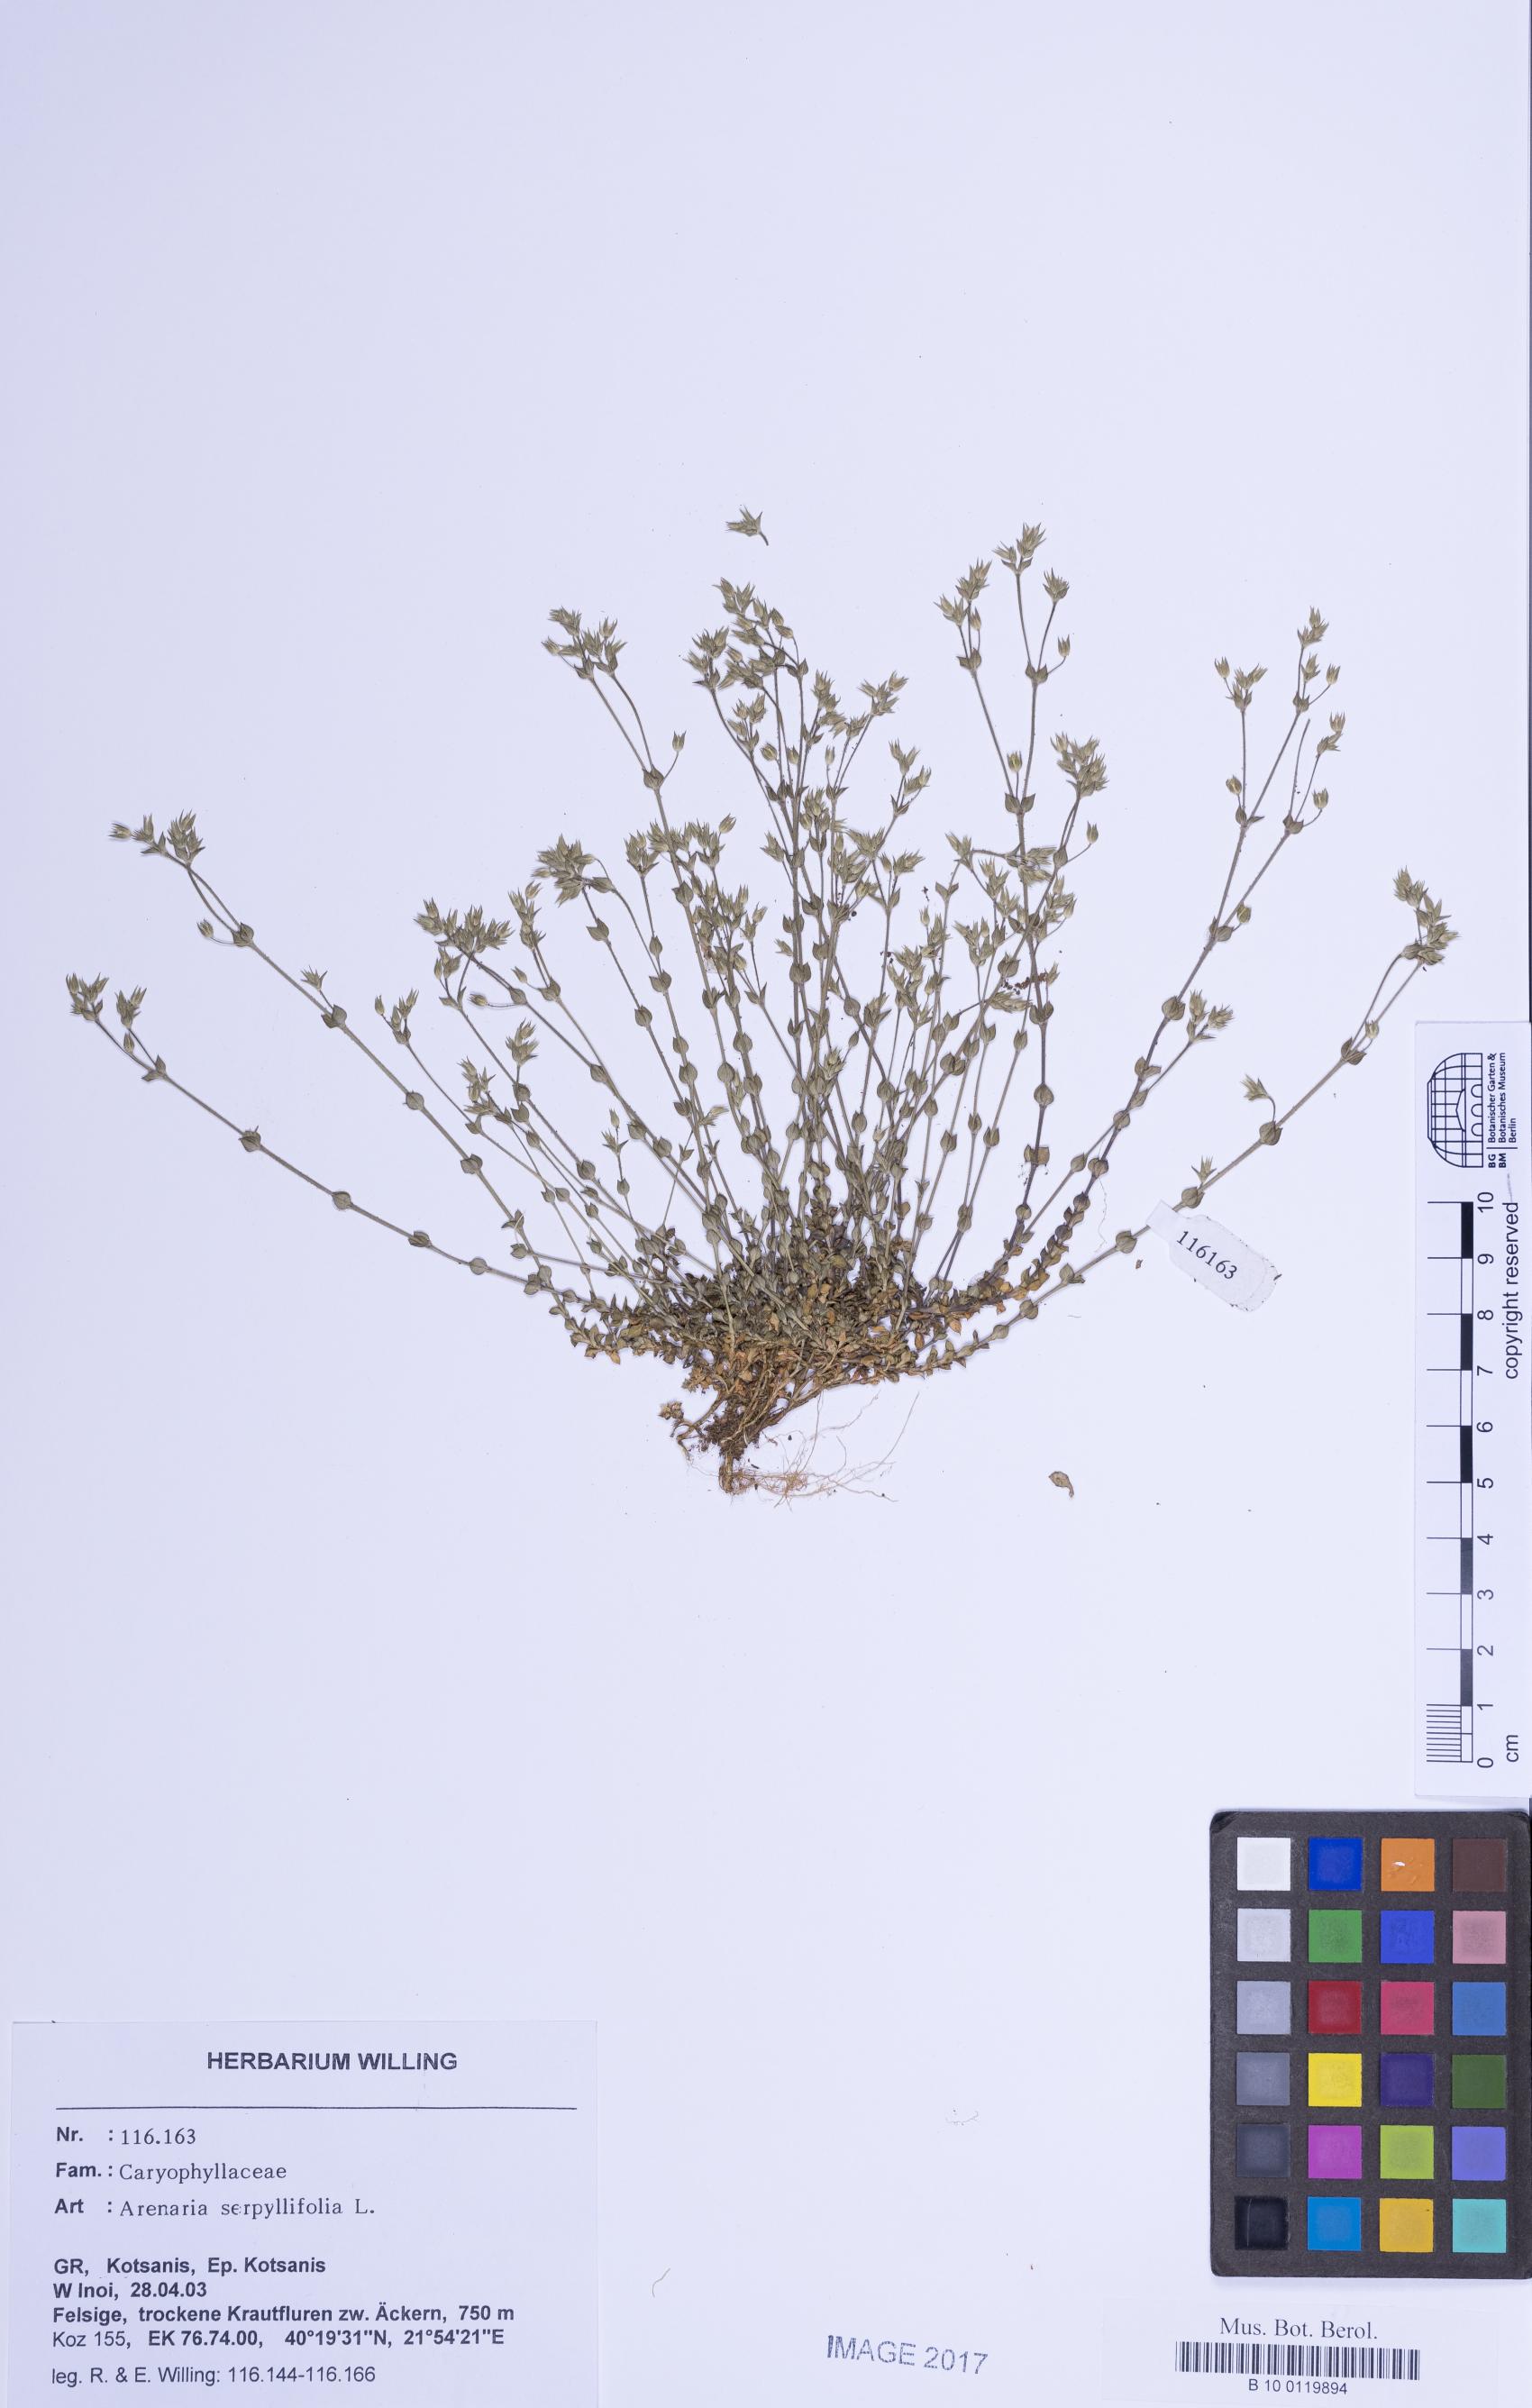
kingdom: Plantae
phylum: Tracheophyta
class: Magnoliopsida
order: Caryophyllales
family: Caryophyllaceae
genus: Arenaria
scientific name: Arenaria serpyllifolia
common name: Thyme-leaved sandwort
